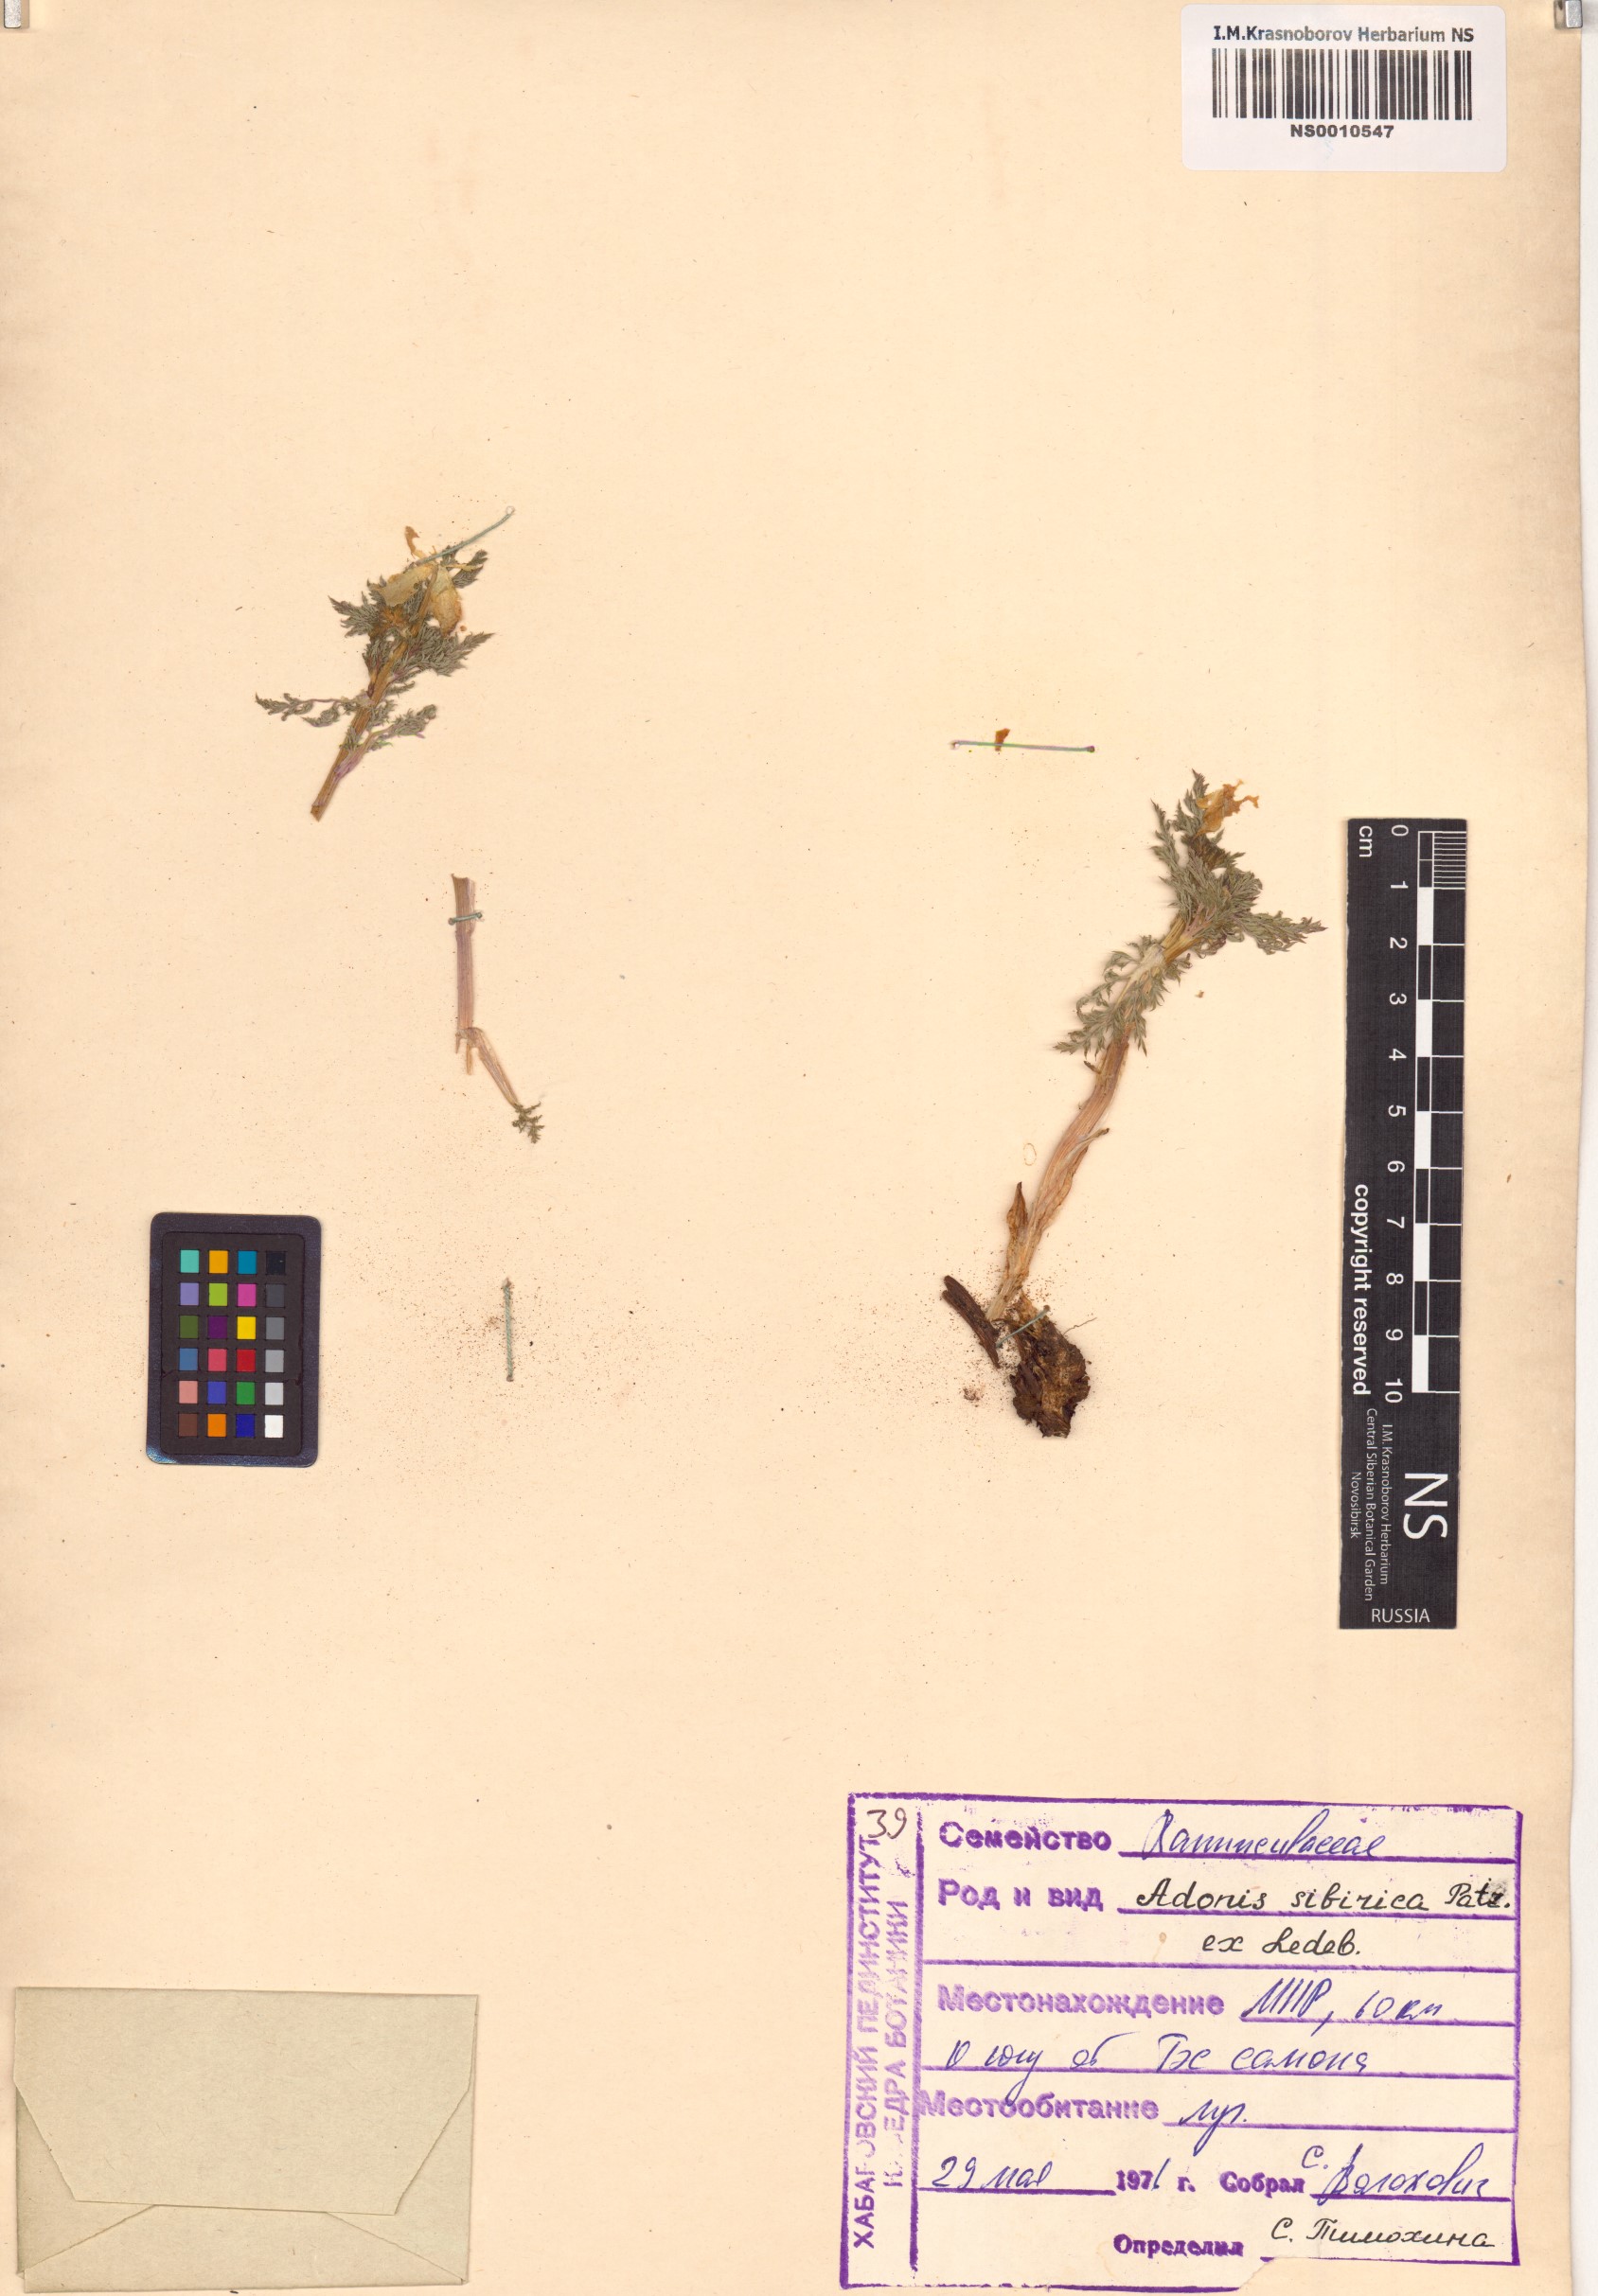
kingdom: Plantae
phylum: Tracheophyta
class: Magnoliopsida
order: Ranunculales
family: Ranunculaceae
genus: Adonis
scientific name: Adonis sibirica
